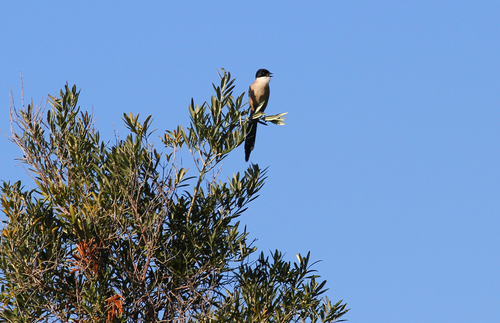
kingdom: Animalia
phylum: Chordata
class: Aves
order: Passeriformes
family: Corvidae
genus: Cyanopica
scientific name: Cyanopica cooki
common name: Iberian magpie
